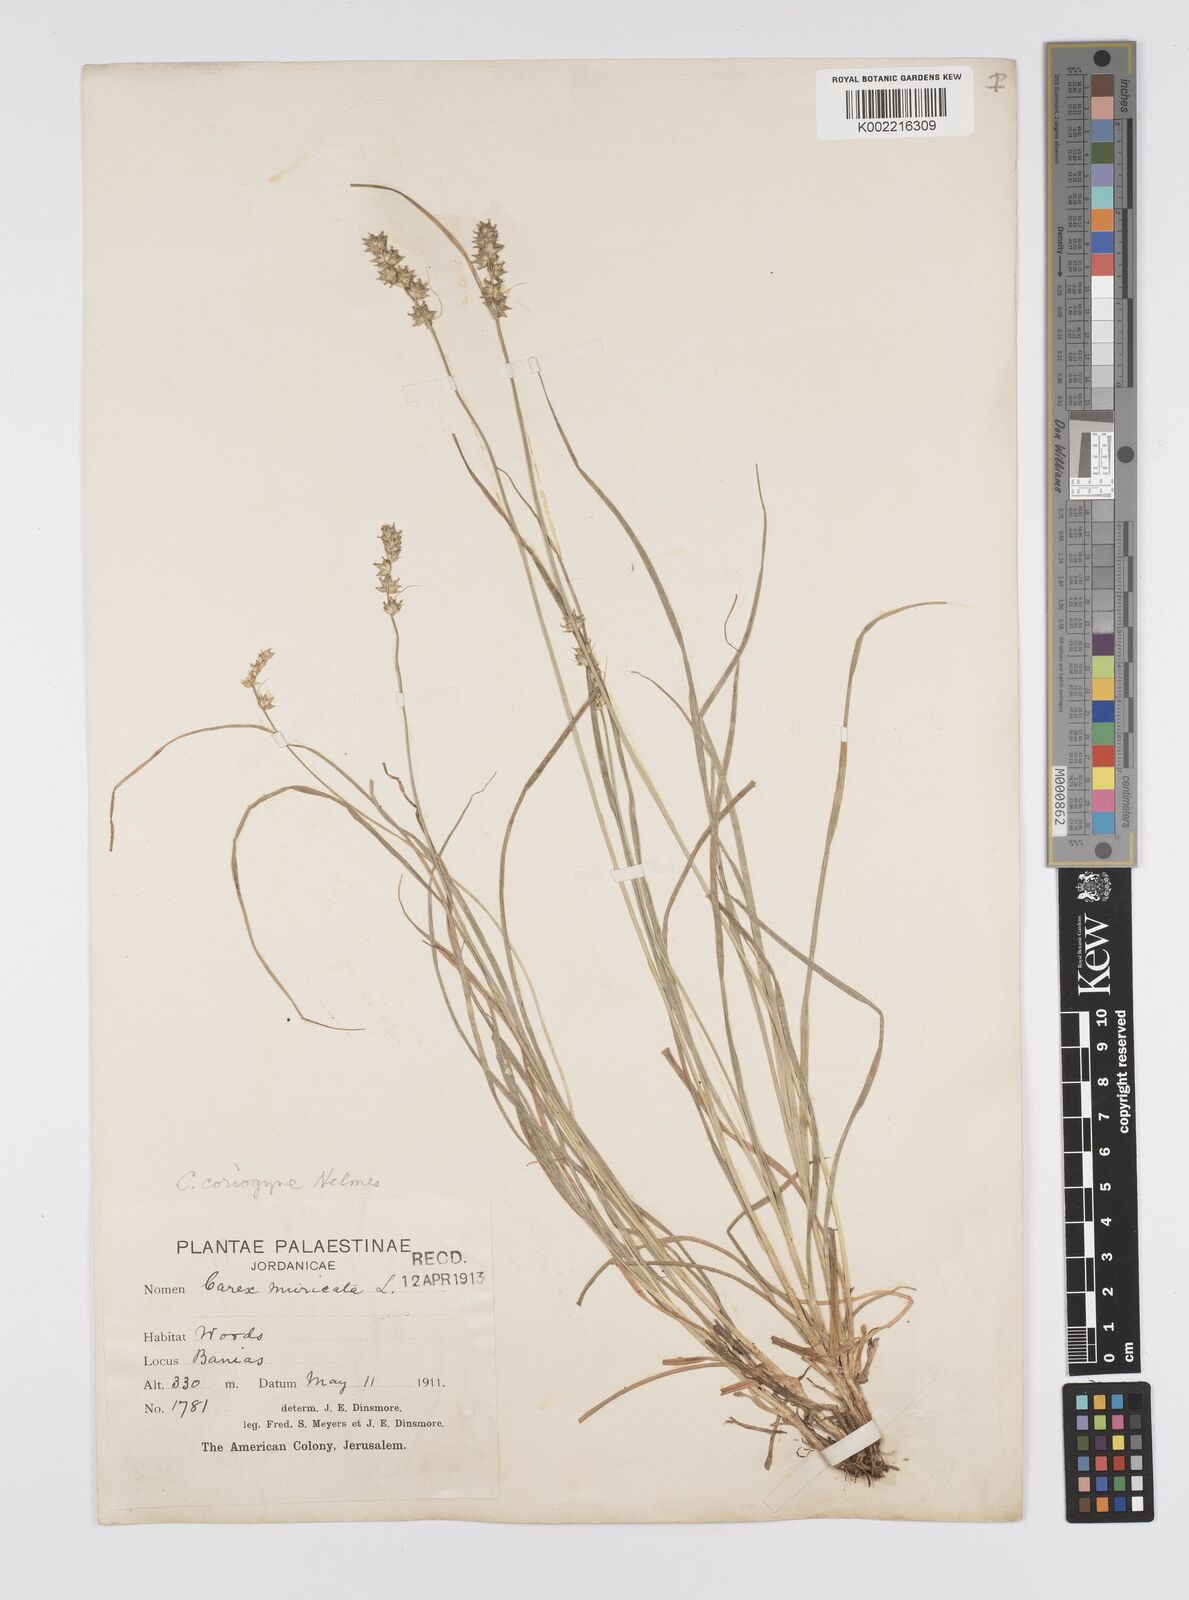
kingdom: Plantae
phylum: Tracheophyta
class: Liliopsida
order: Poales
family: Cyperaceae
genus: Carex
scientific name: Carex coriogyne
